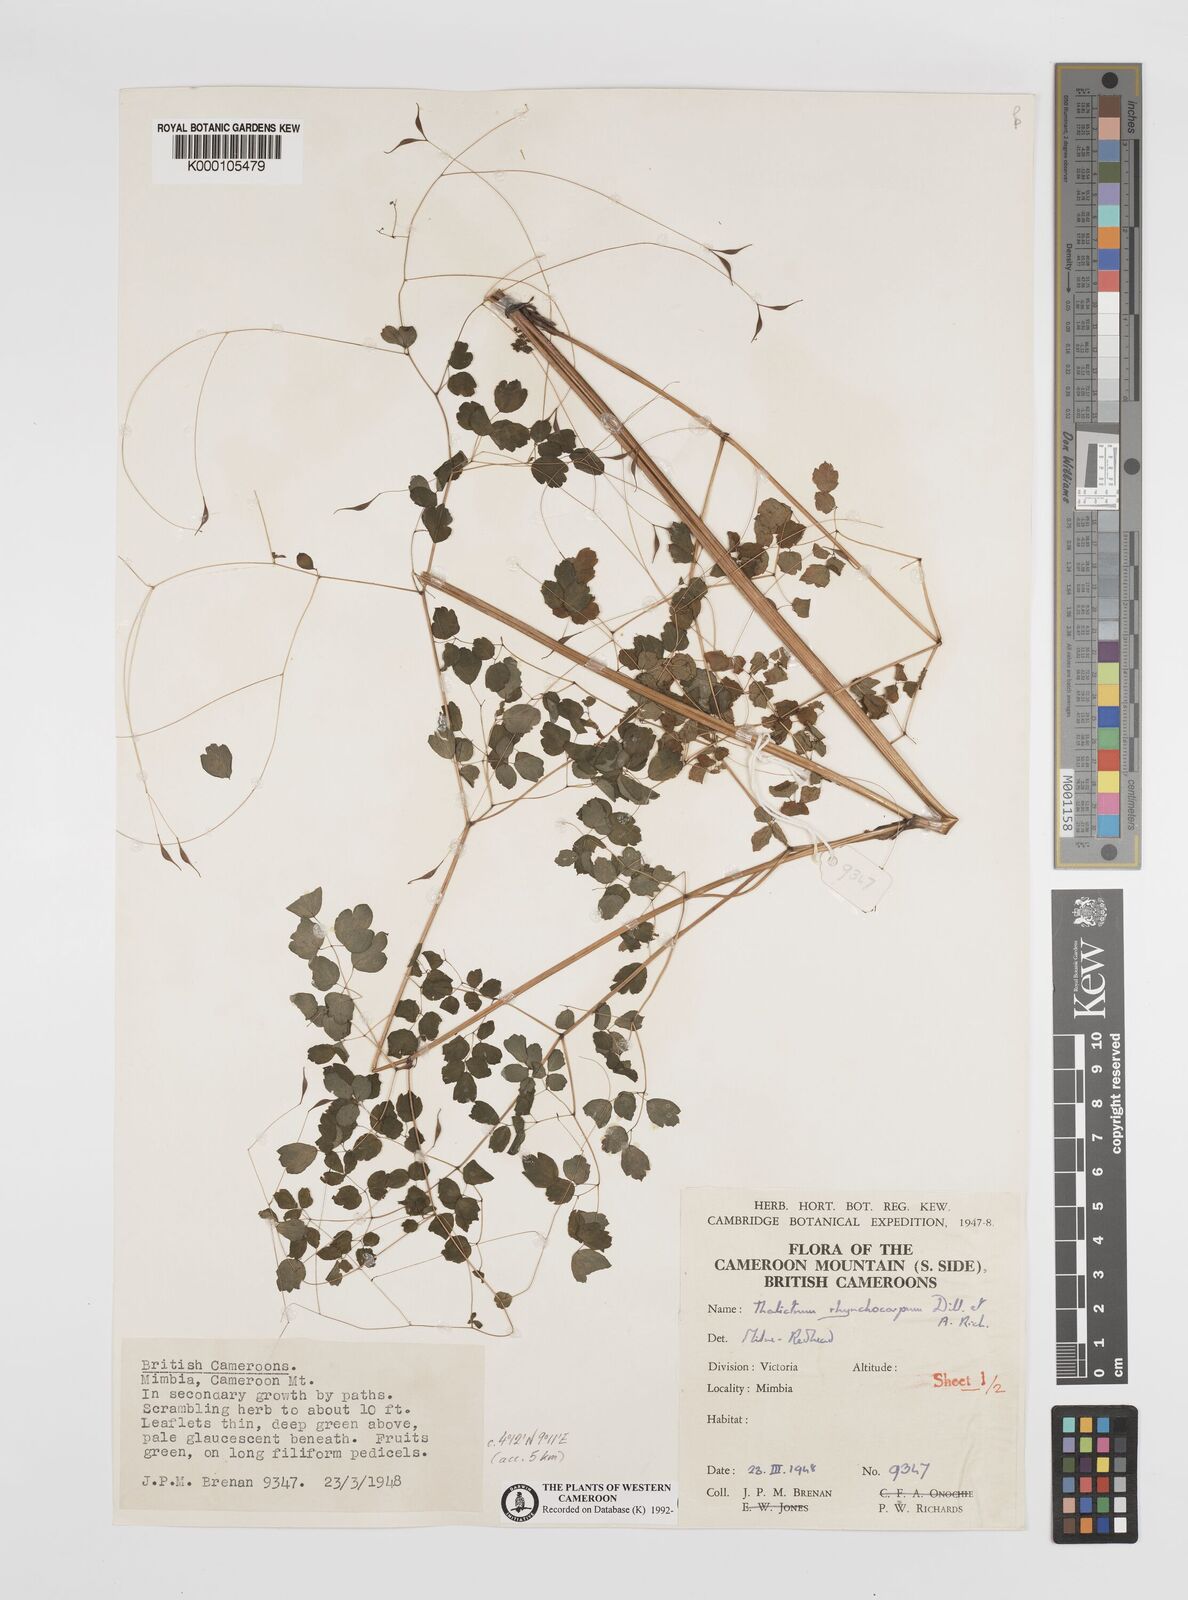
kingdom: Plantae
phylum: Tracheophyta
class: Magnoliopsida
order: Ranunculales
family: Ranunculaceae
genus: Thalictrum
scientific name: Thalictrum
